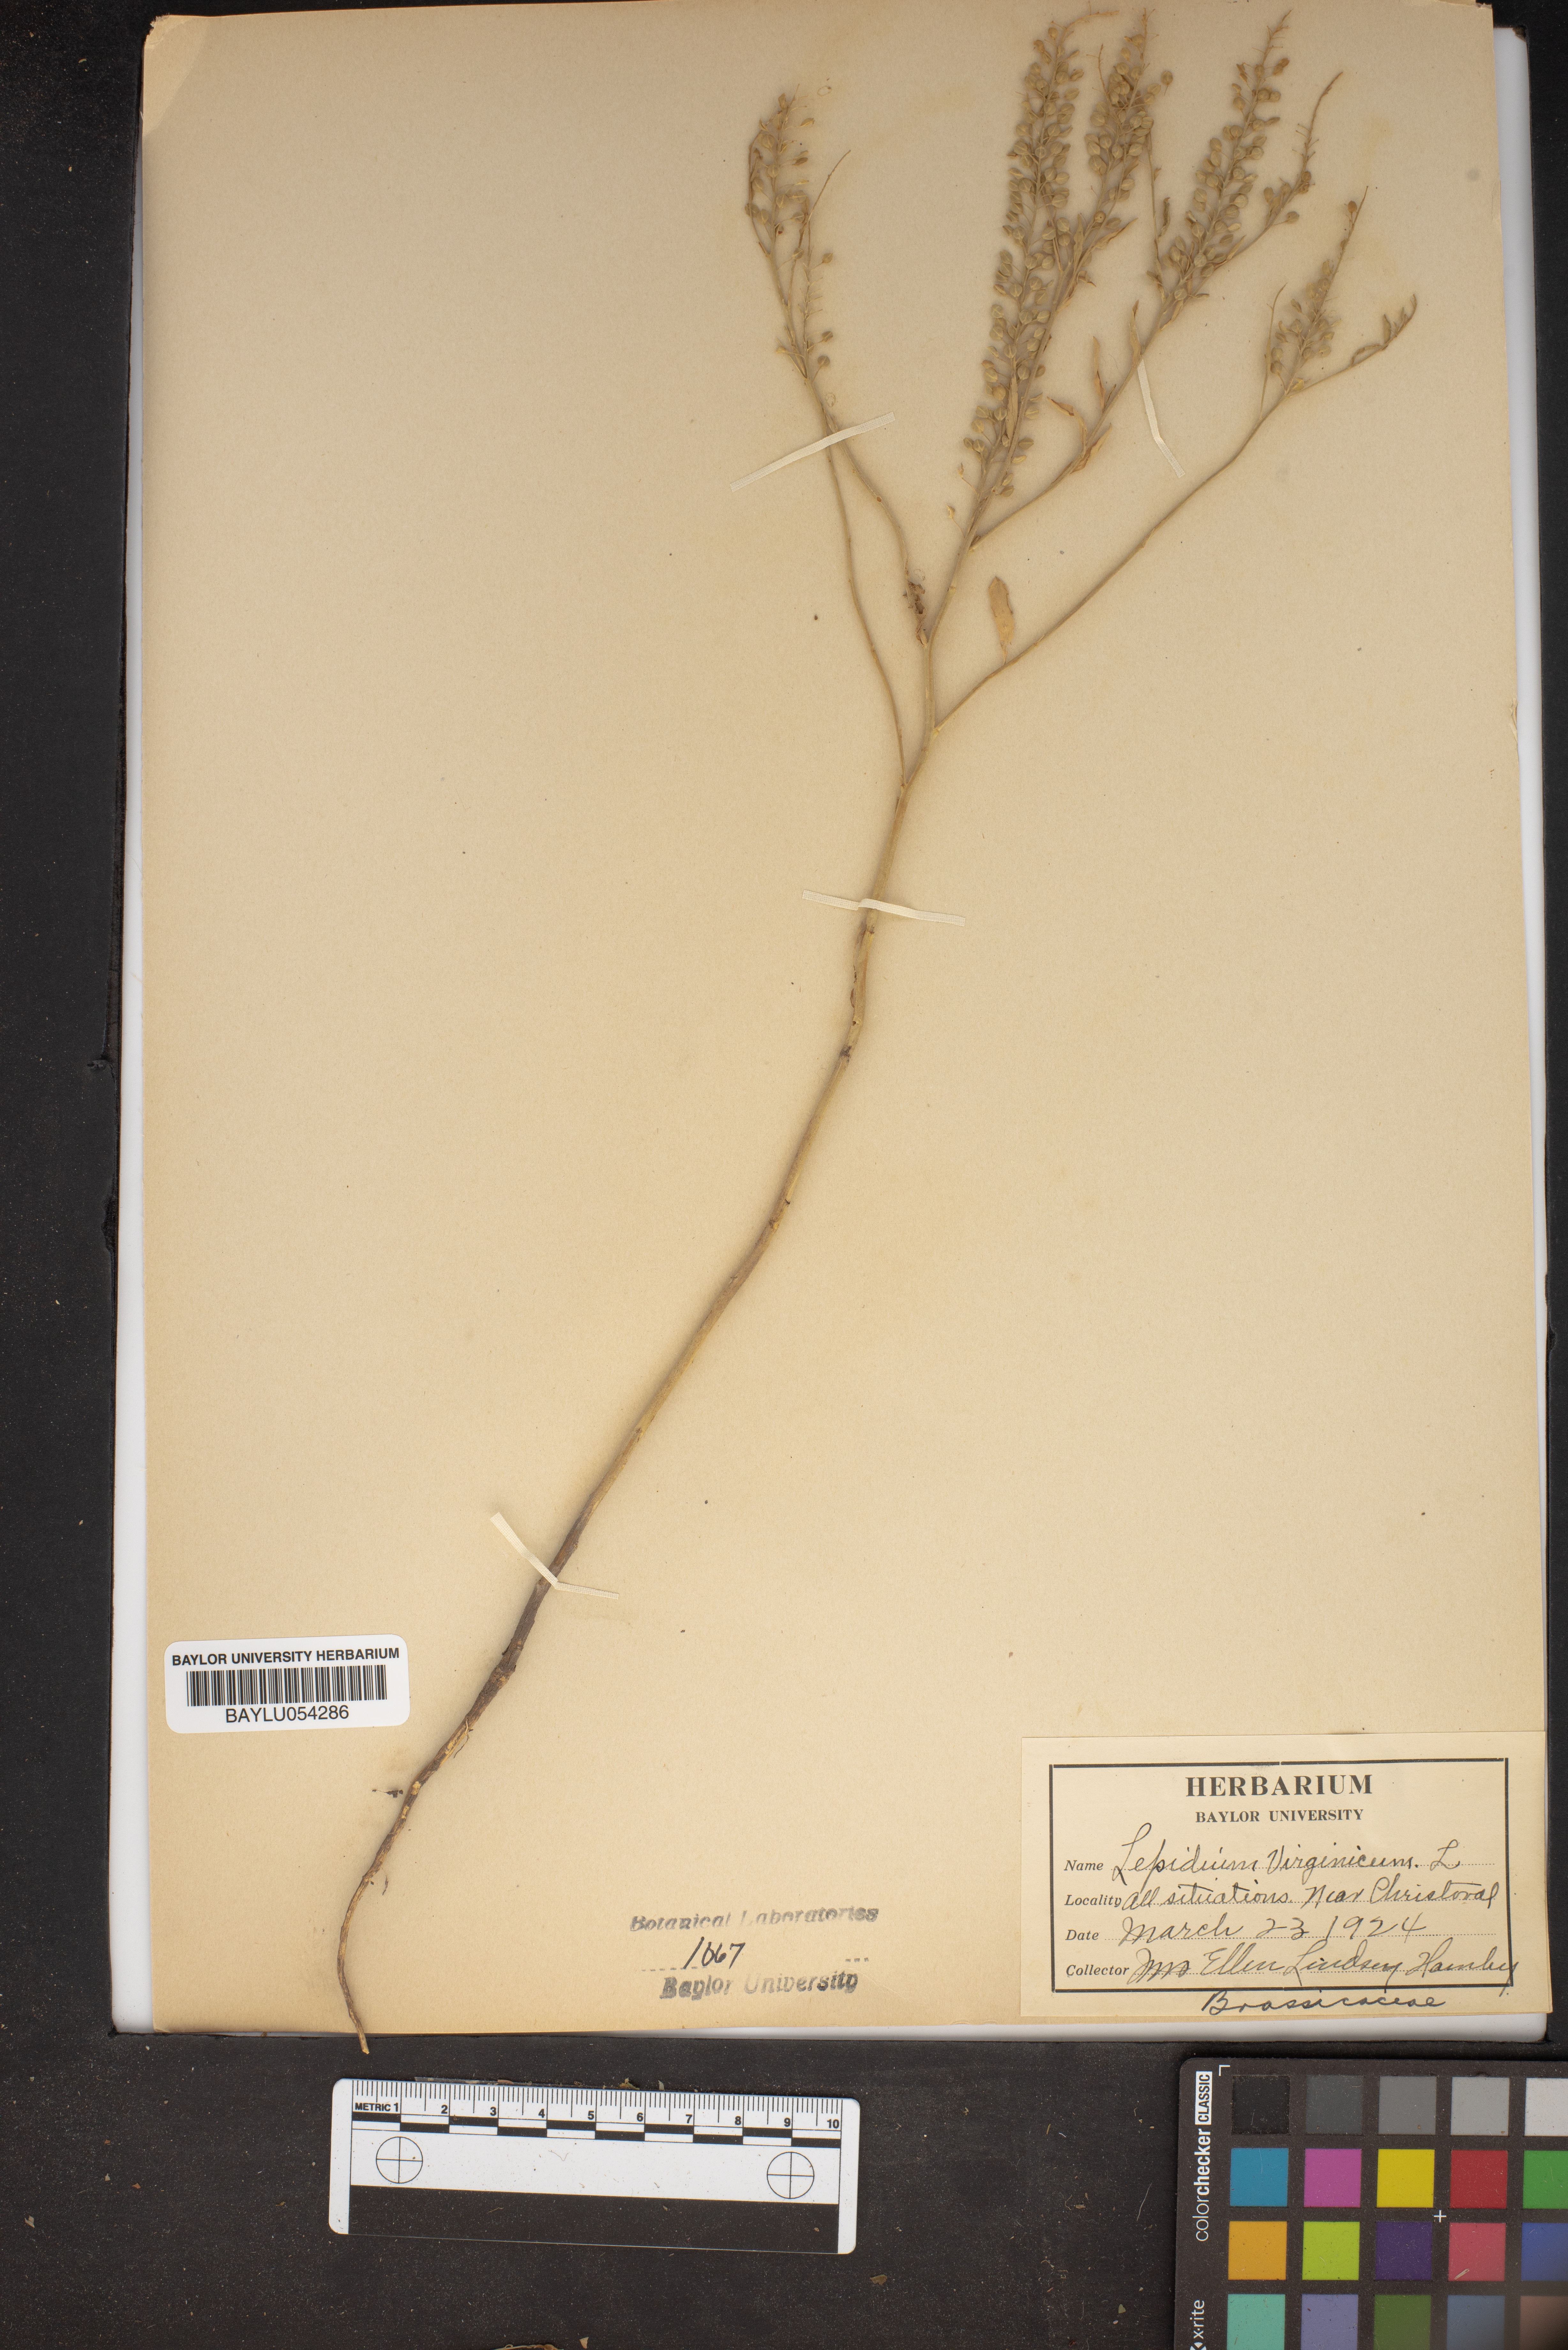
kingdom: Plantae
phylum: Tracheophyta
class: Magnoliopsida
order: Brassicales
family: Brassicaceae
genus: Lepidium
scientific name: Lepidium virginicum
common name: Least pepperwort
